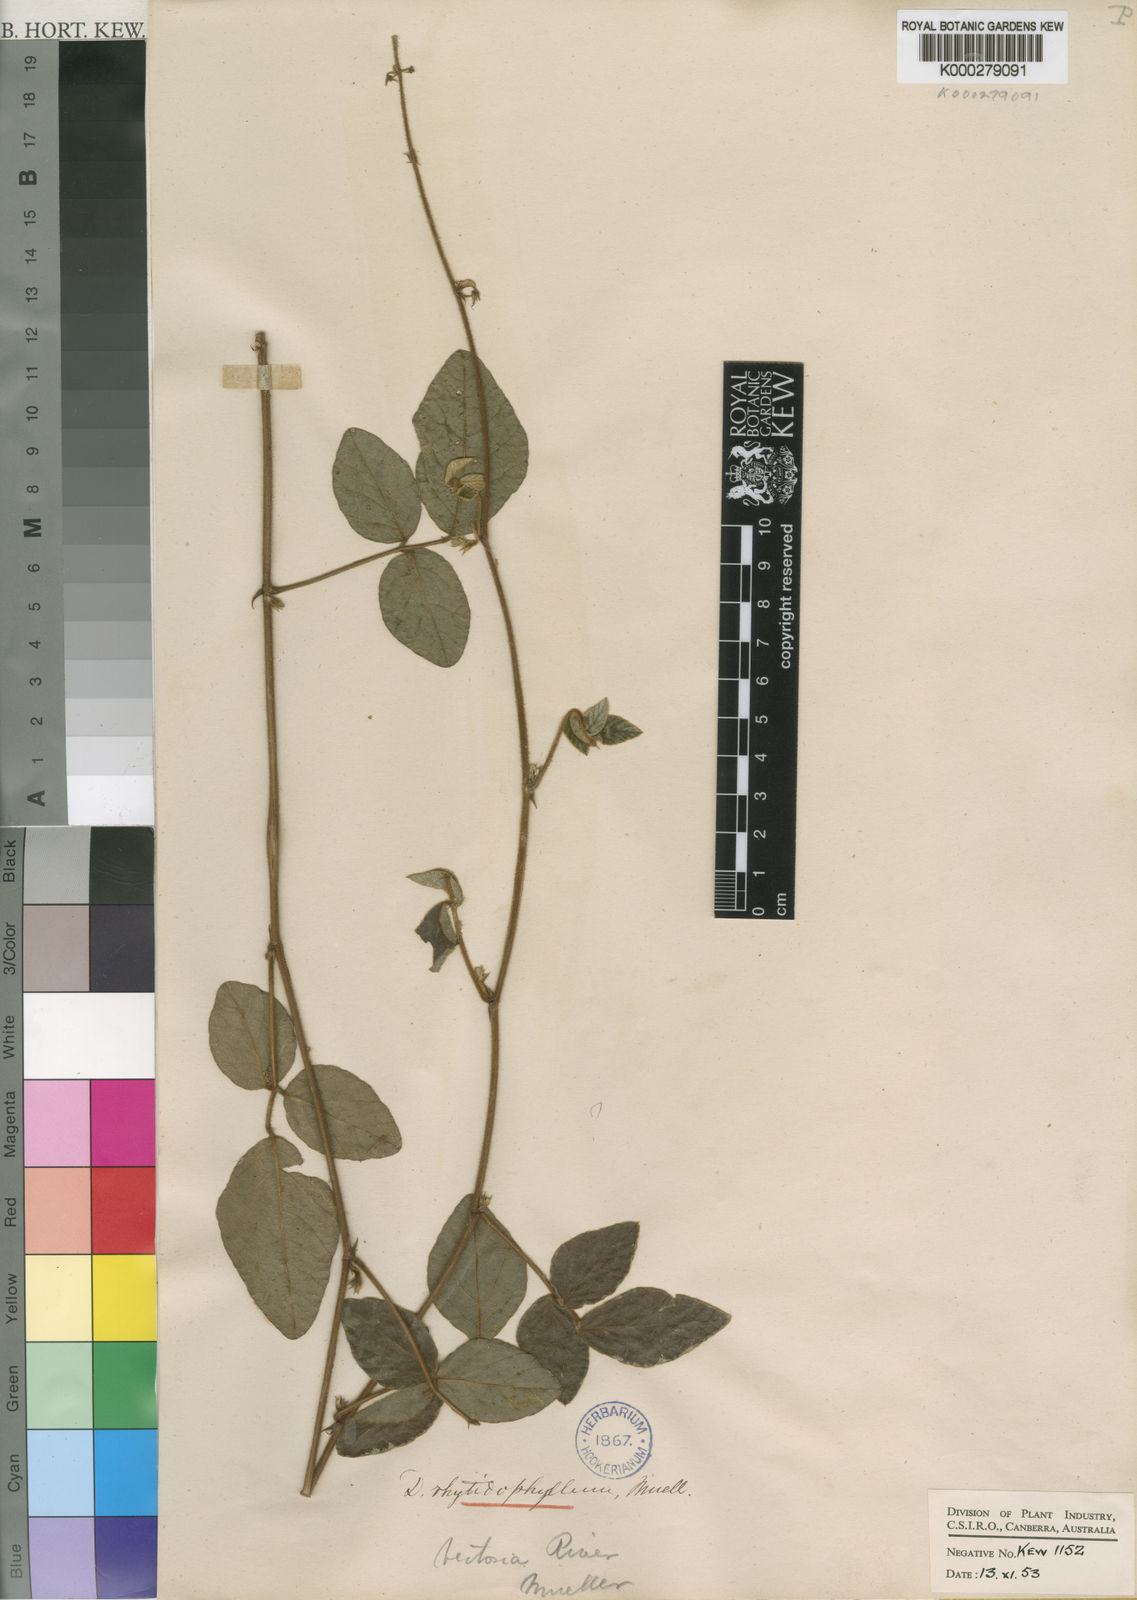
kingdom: Plantae
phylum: Tracheophyta
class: Magnoliopsida
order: Fabales
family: Fabaceae
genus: Maekawaea
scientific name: Maekawaea rhytidophylla
